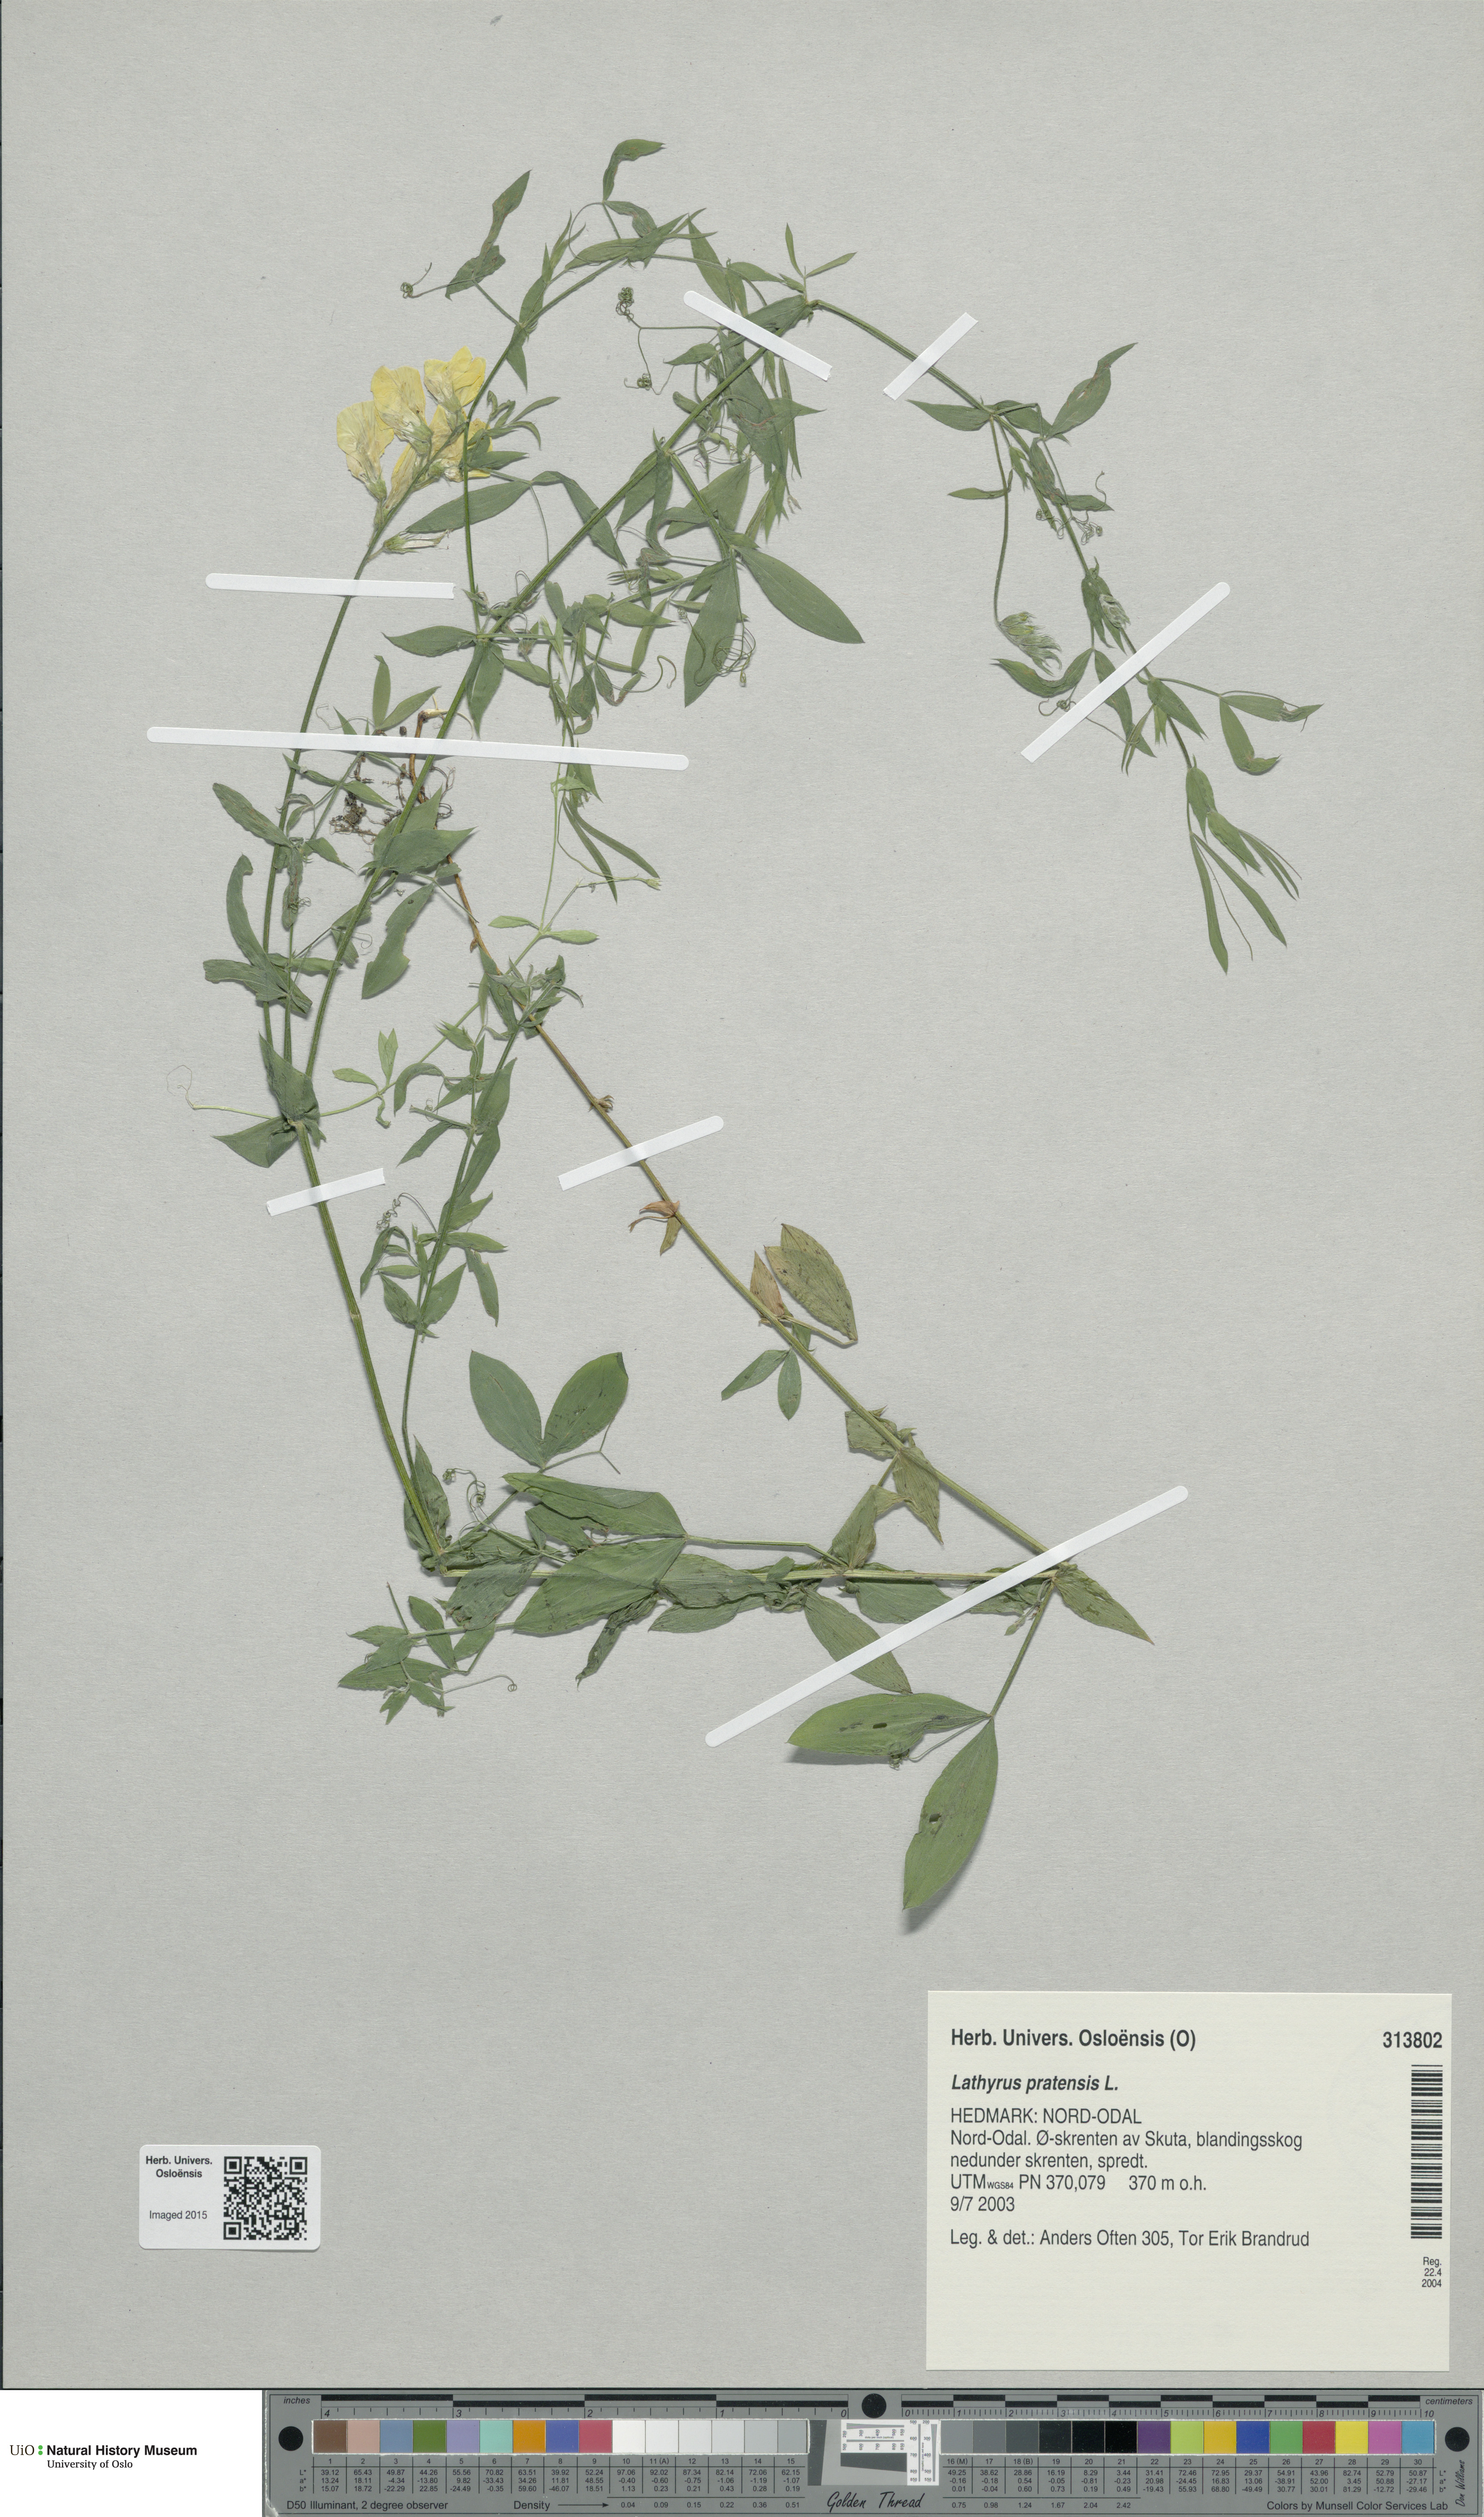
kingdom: Plantae
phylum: Tracheophyta
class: Magnoliopsida
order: Fabales
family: Fabaceae
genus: Lathyrus
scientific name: Lathyrus pratensis
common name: Meadow vetchling
